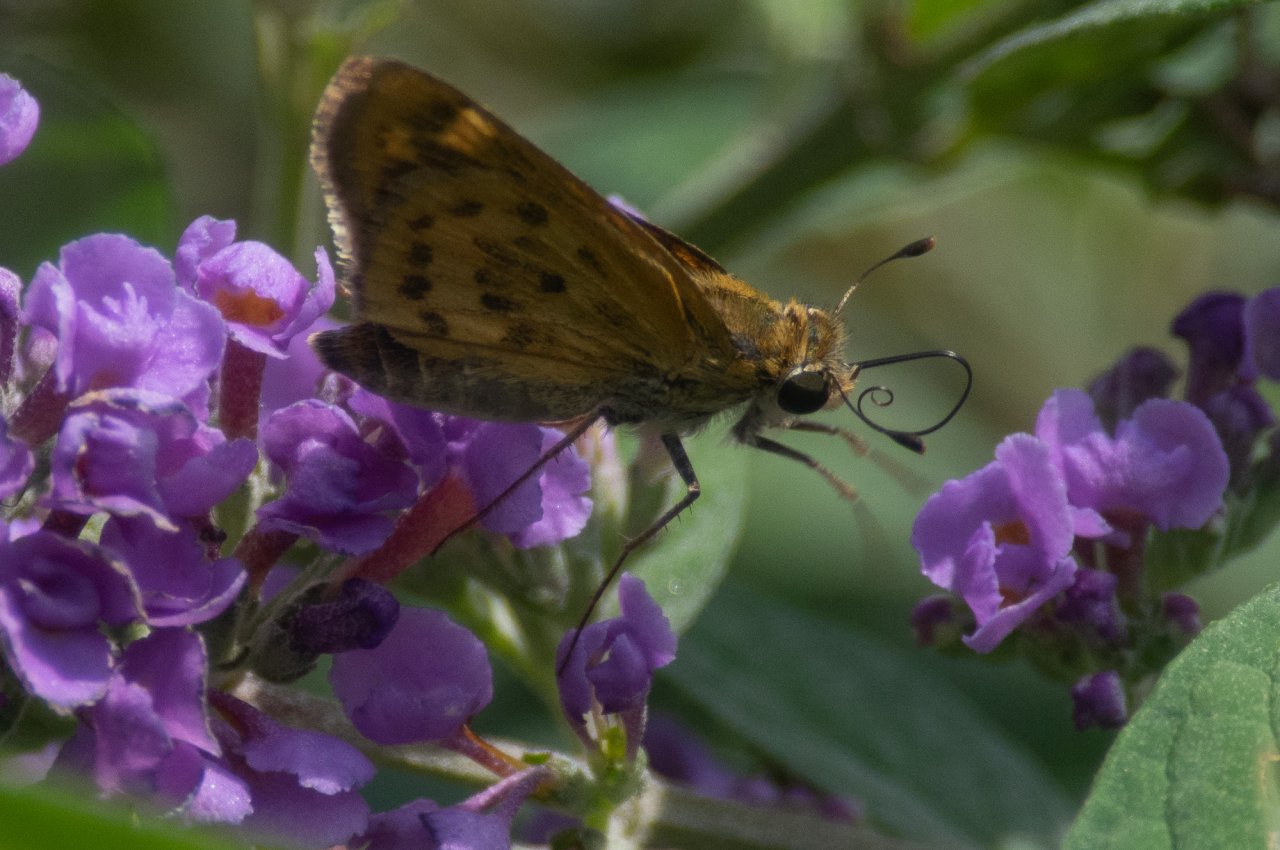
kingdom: Animalia
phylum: Arthropoda
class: Insecta
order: Lepidoptera
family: Hesperiidae
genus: Hylephila
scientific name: Hylephila phyleus
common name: Fiery Skipper
